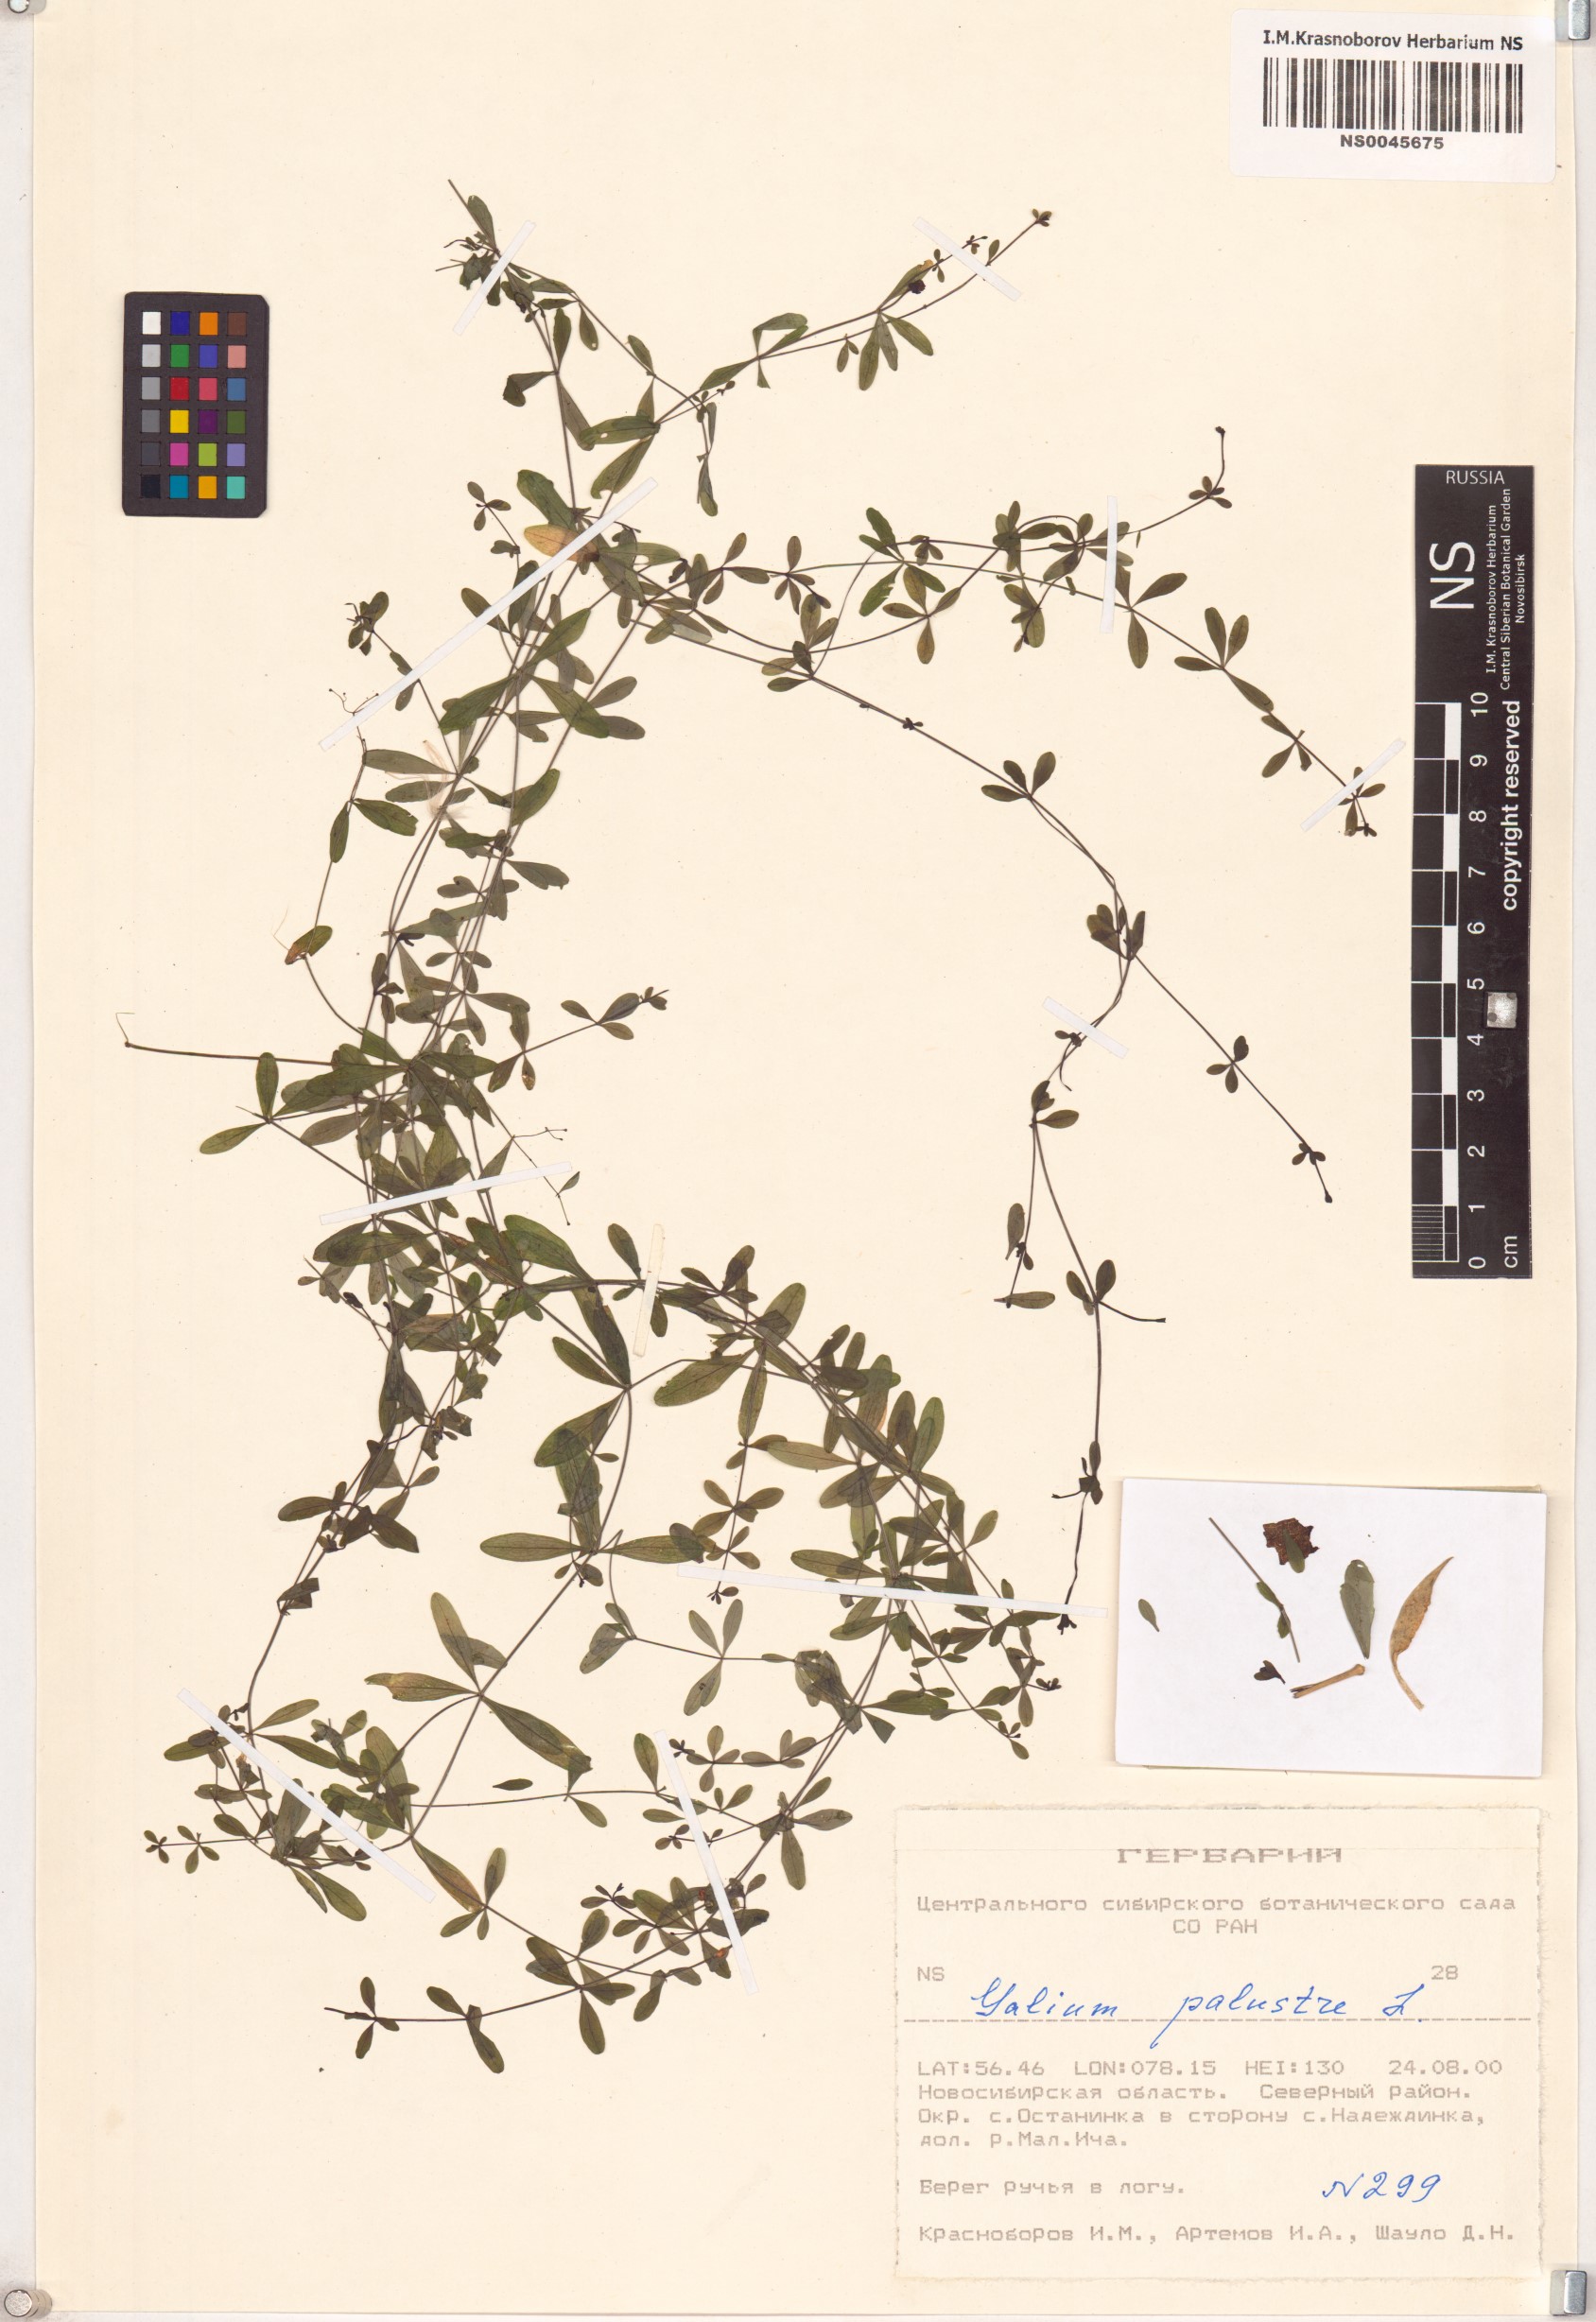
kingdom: Plantae
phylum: Tracheophyta
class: Magnoliopsida
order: Gentianales
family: Rubiaceae
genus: Galium
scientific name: Galium palustre
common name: Common marsh-bedstraw
